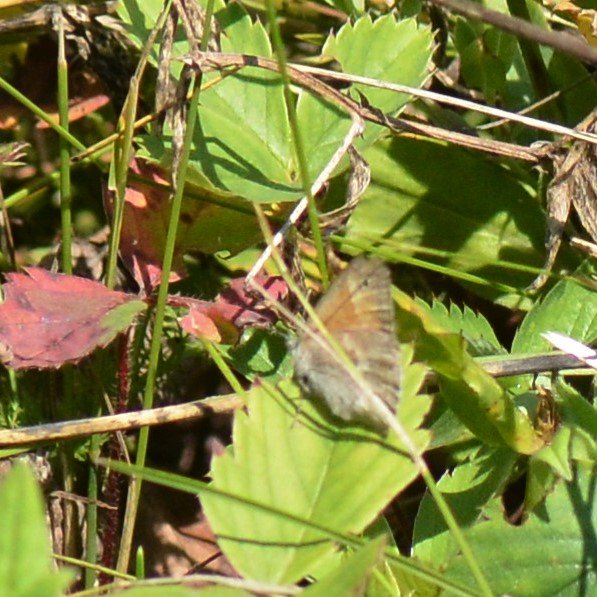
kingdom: Animalia
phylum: Arthropoda
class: Insecta
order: Lepidoptera
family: Nymphalidae
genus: Coenonympha
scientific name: Coenonympha tullia
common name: Large Heath
